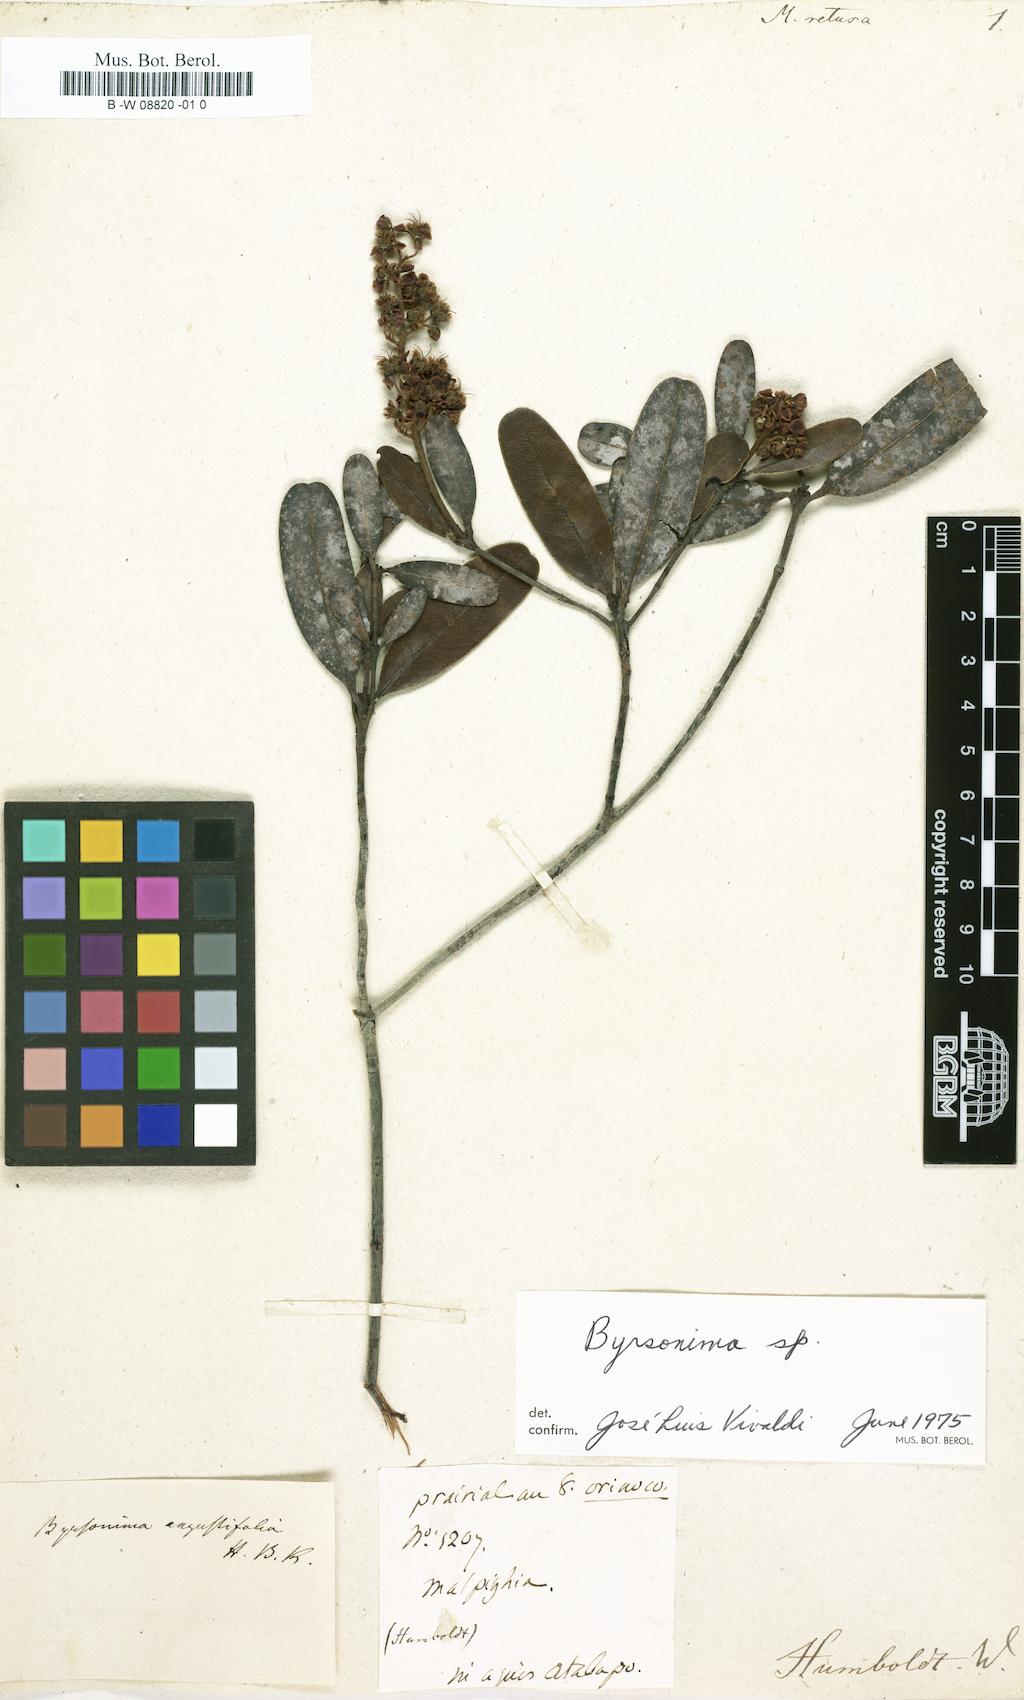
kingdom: Plantae
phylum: Tracheophyta
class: Magnoliopsida
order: Malpighiales
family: Malpighiaceae
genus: Malpighia
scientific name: Malpighia emarginata
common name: Barbados cherry
